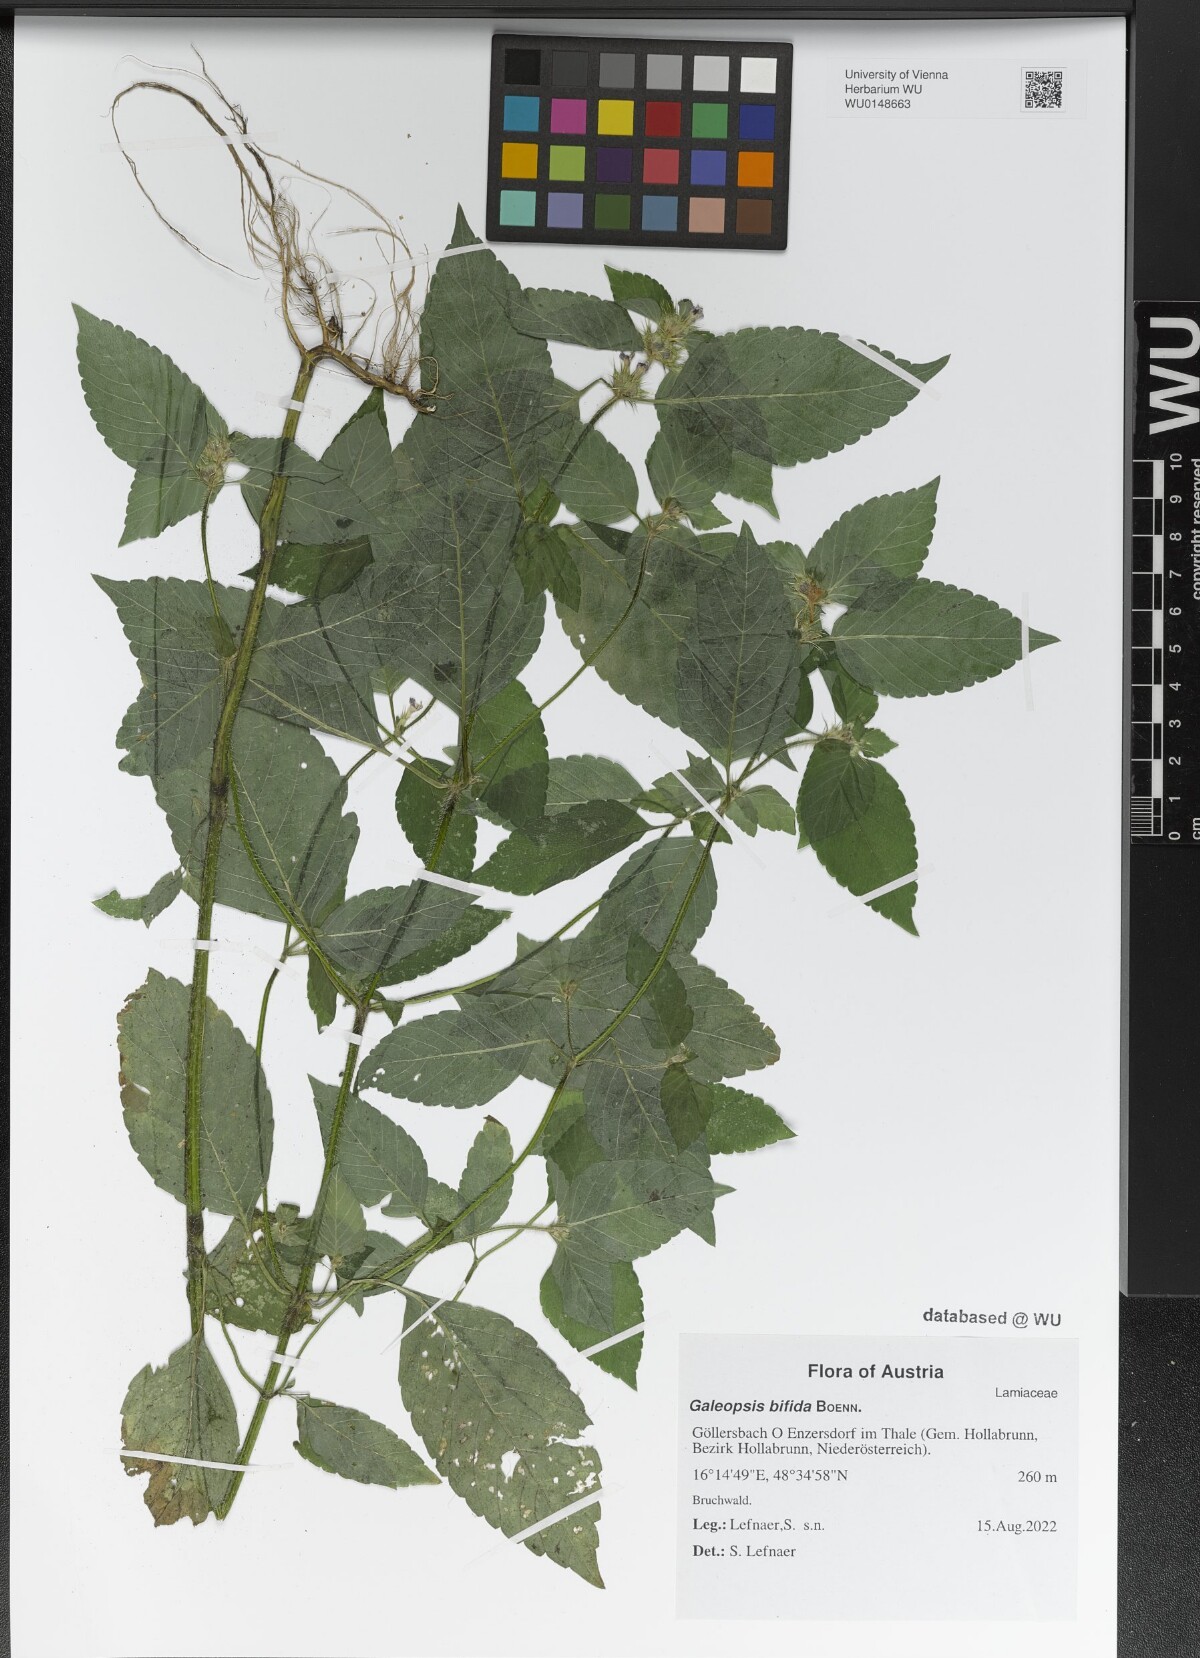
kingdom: Plantae
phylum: Tracheophyta
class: Magnoliopsida
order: Lamiales
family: Lamiaceae
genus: Galeopsis
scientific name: Galeopsis bifida
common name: Bifid hemp-nettle
